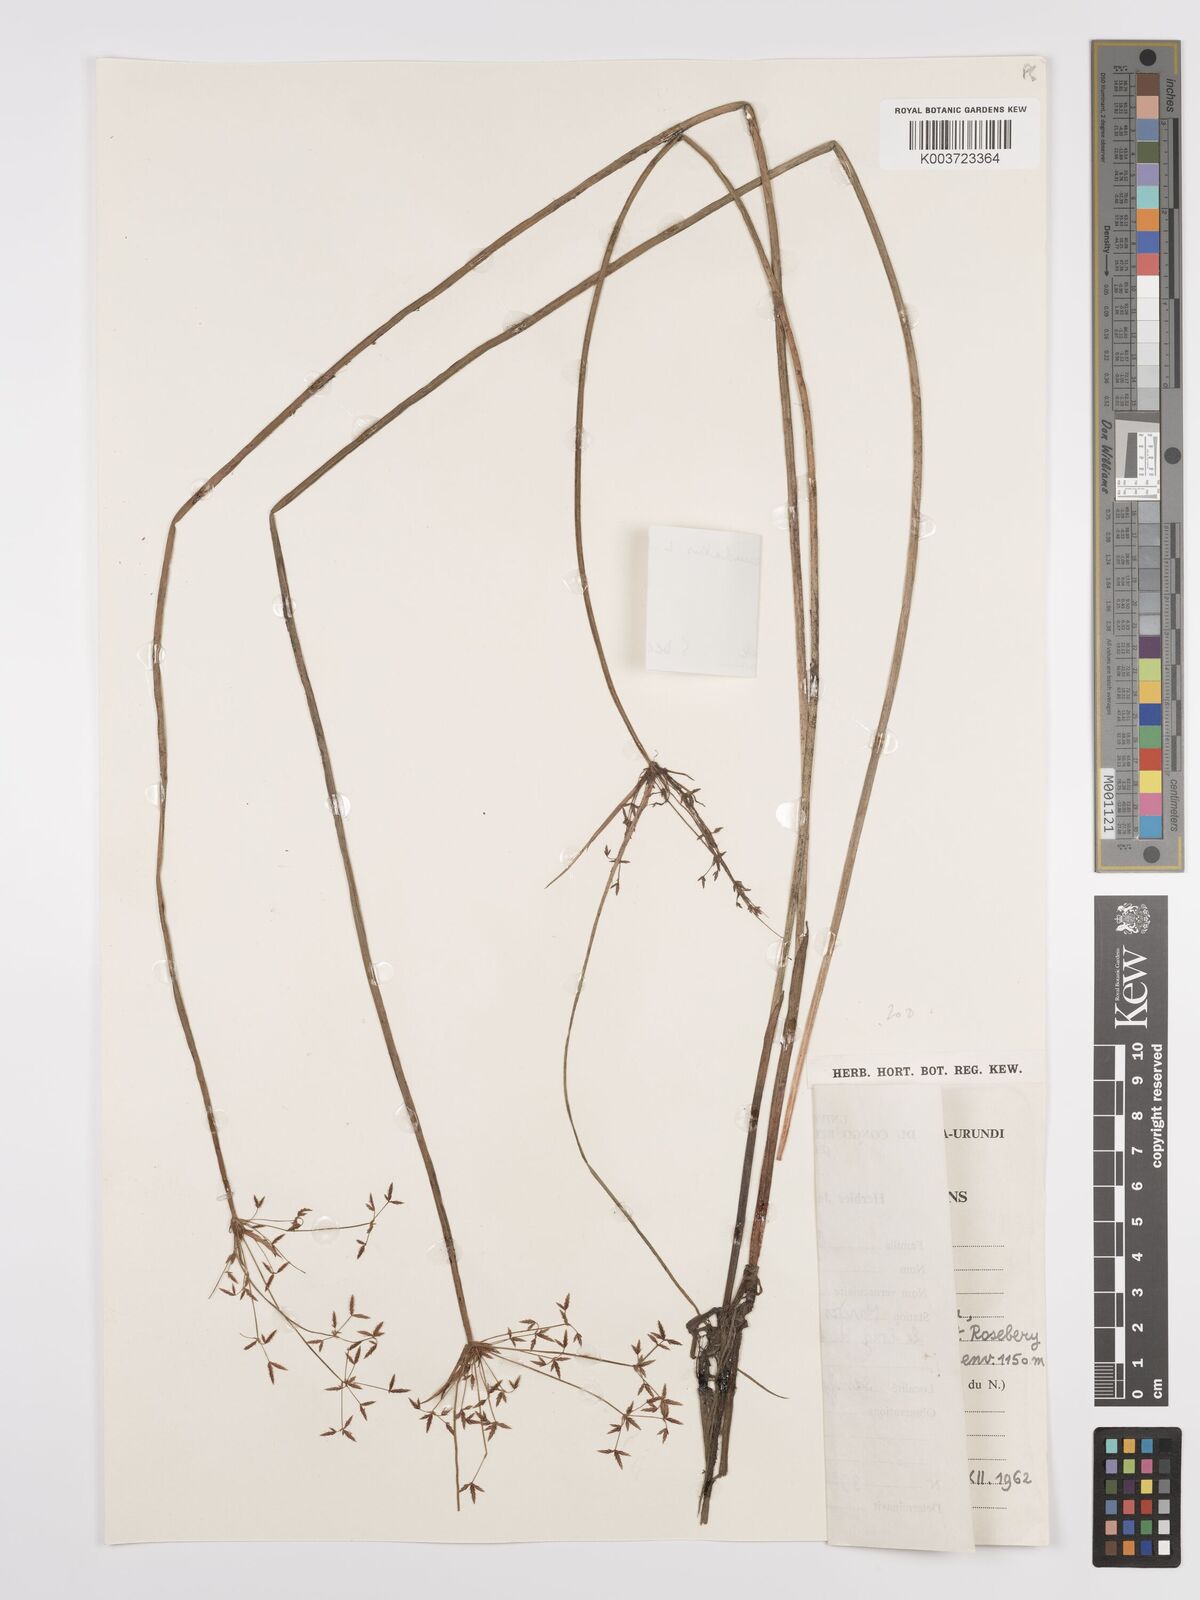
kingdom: Plantae
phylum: Tracheophyta
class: Liliopsida
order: Poales
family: Cyperaceae
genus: Cyperus
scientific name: Cyperus denudatus
